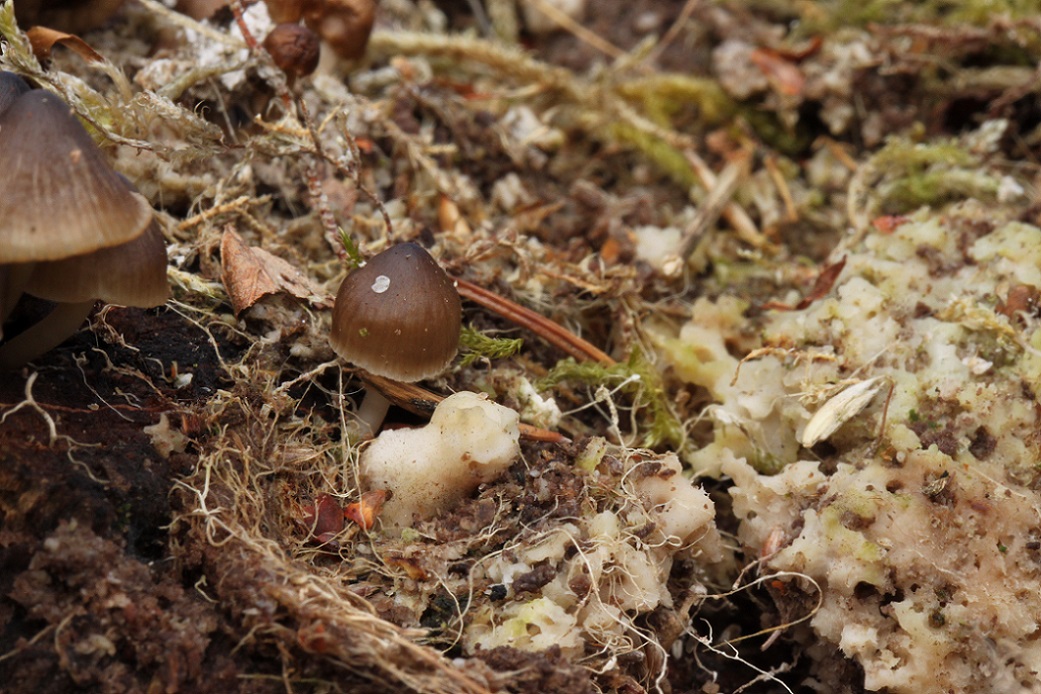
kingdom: Fungi
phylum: Basidiomycota
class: Agaricomycetes
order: Agaricales
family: Mycenaceae
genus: Mycena
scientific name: Mycena tintinnabulum
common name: vinter-huesvamp
